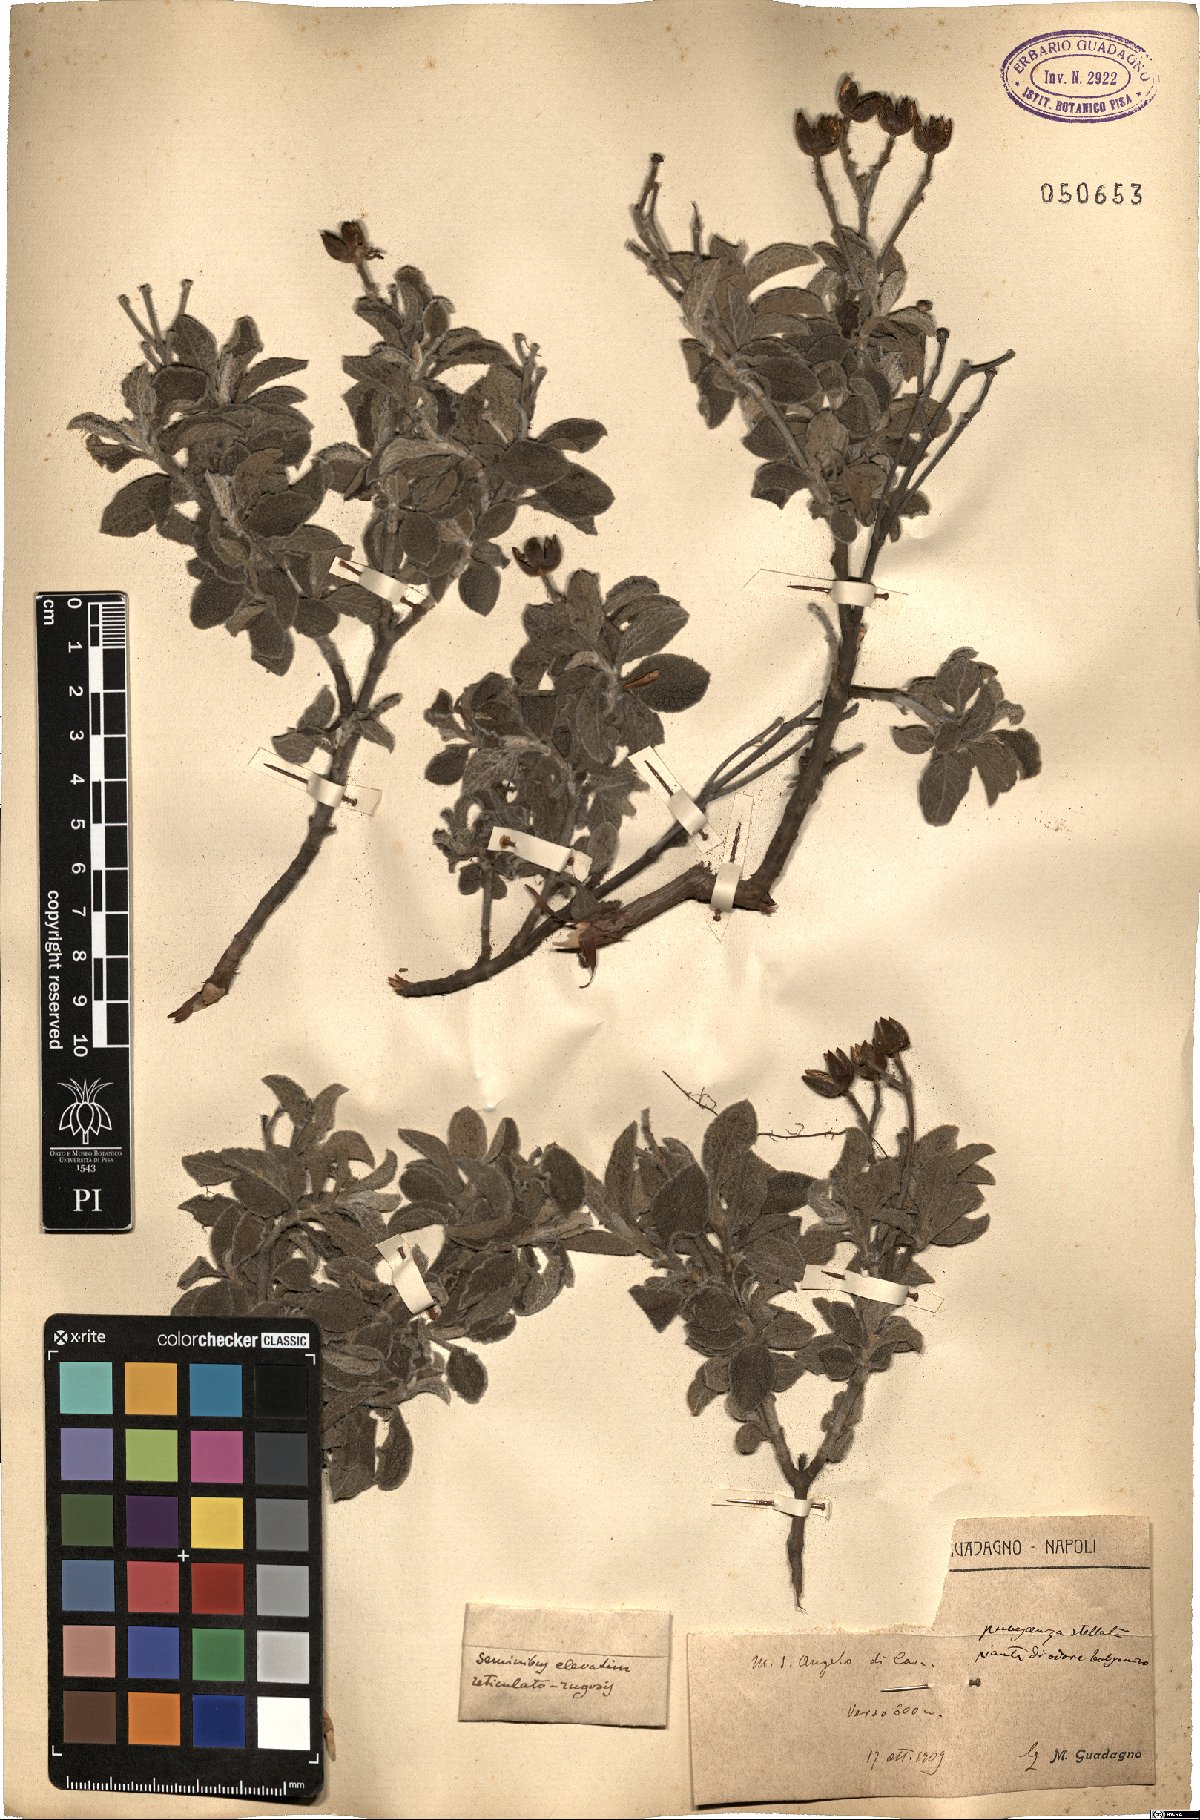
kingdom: Plantae
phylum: Tracheophyta
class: Magnoliopsida
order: Malvales
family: Cistaceae
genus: Cistus
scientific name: Cistus
